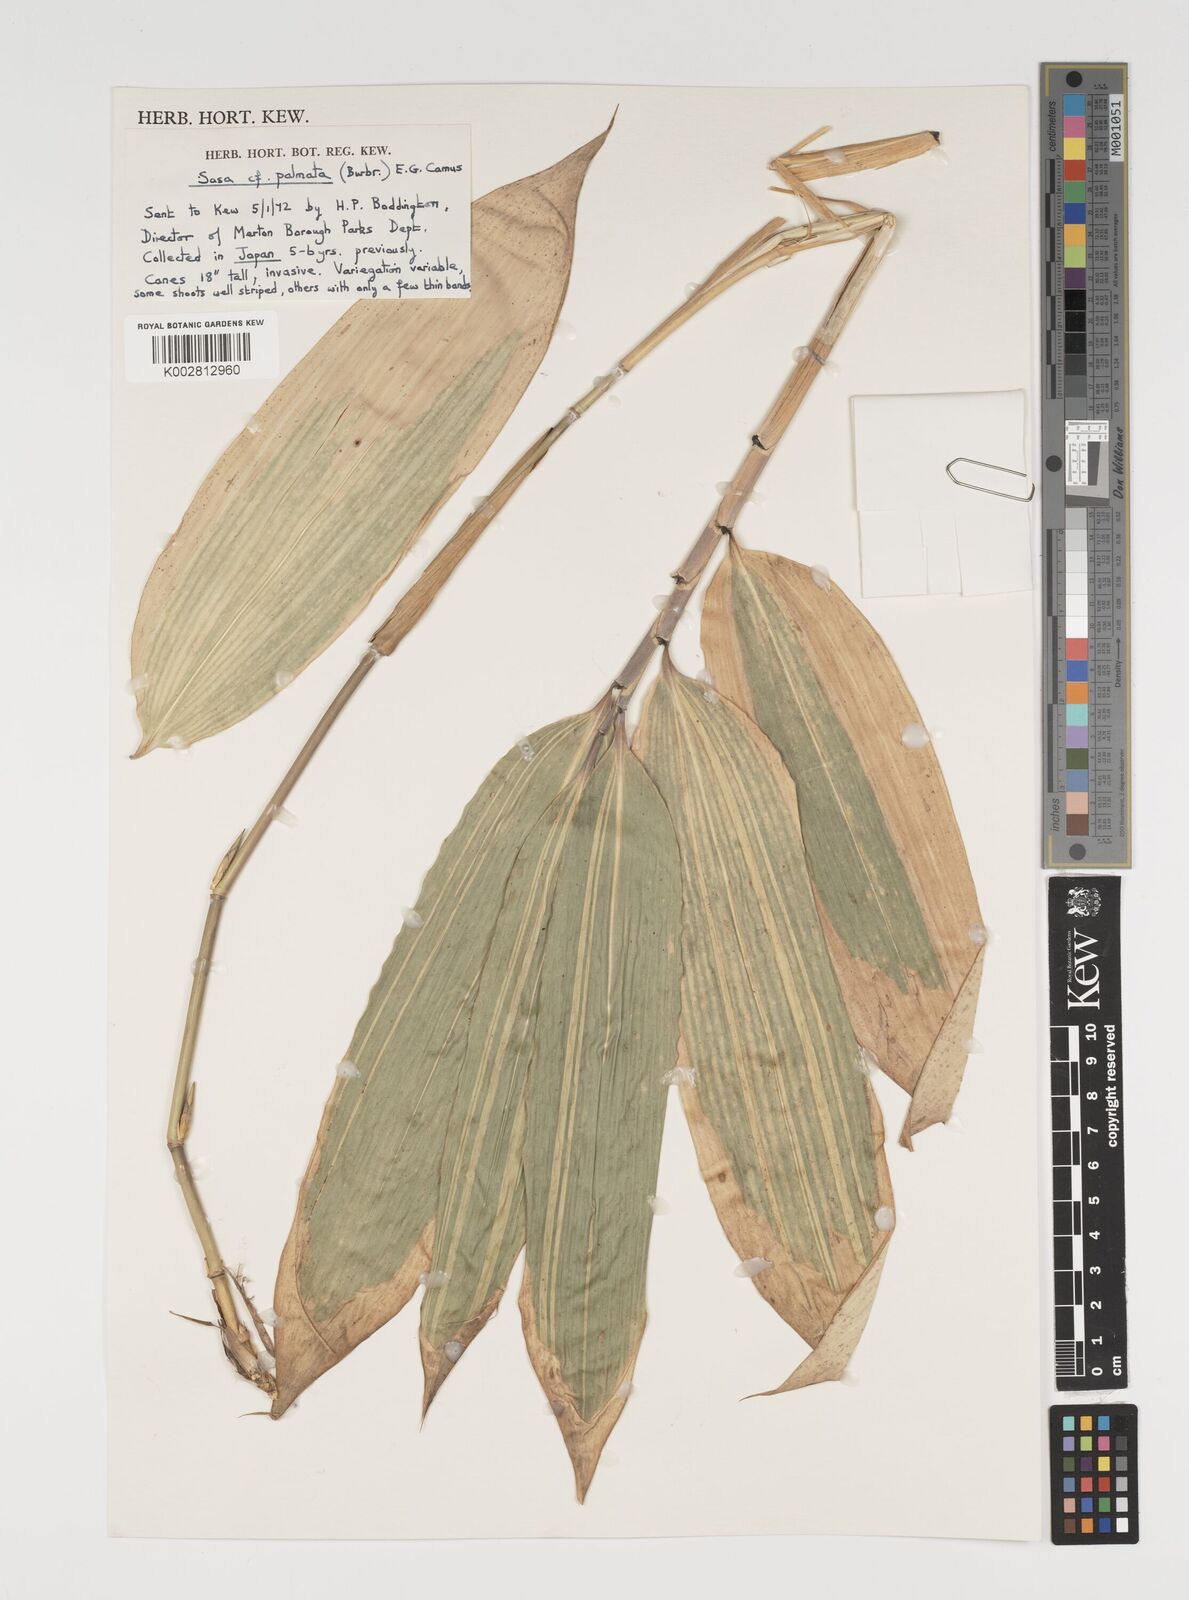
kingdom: Plantae
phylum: Tracheophyta
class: Liliopsida
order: Poales
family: Poaceae
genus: Sasa
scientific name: Sasa palmata
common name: Broad-leaved bamboo
